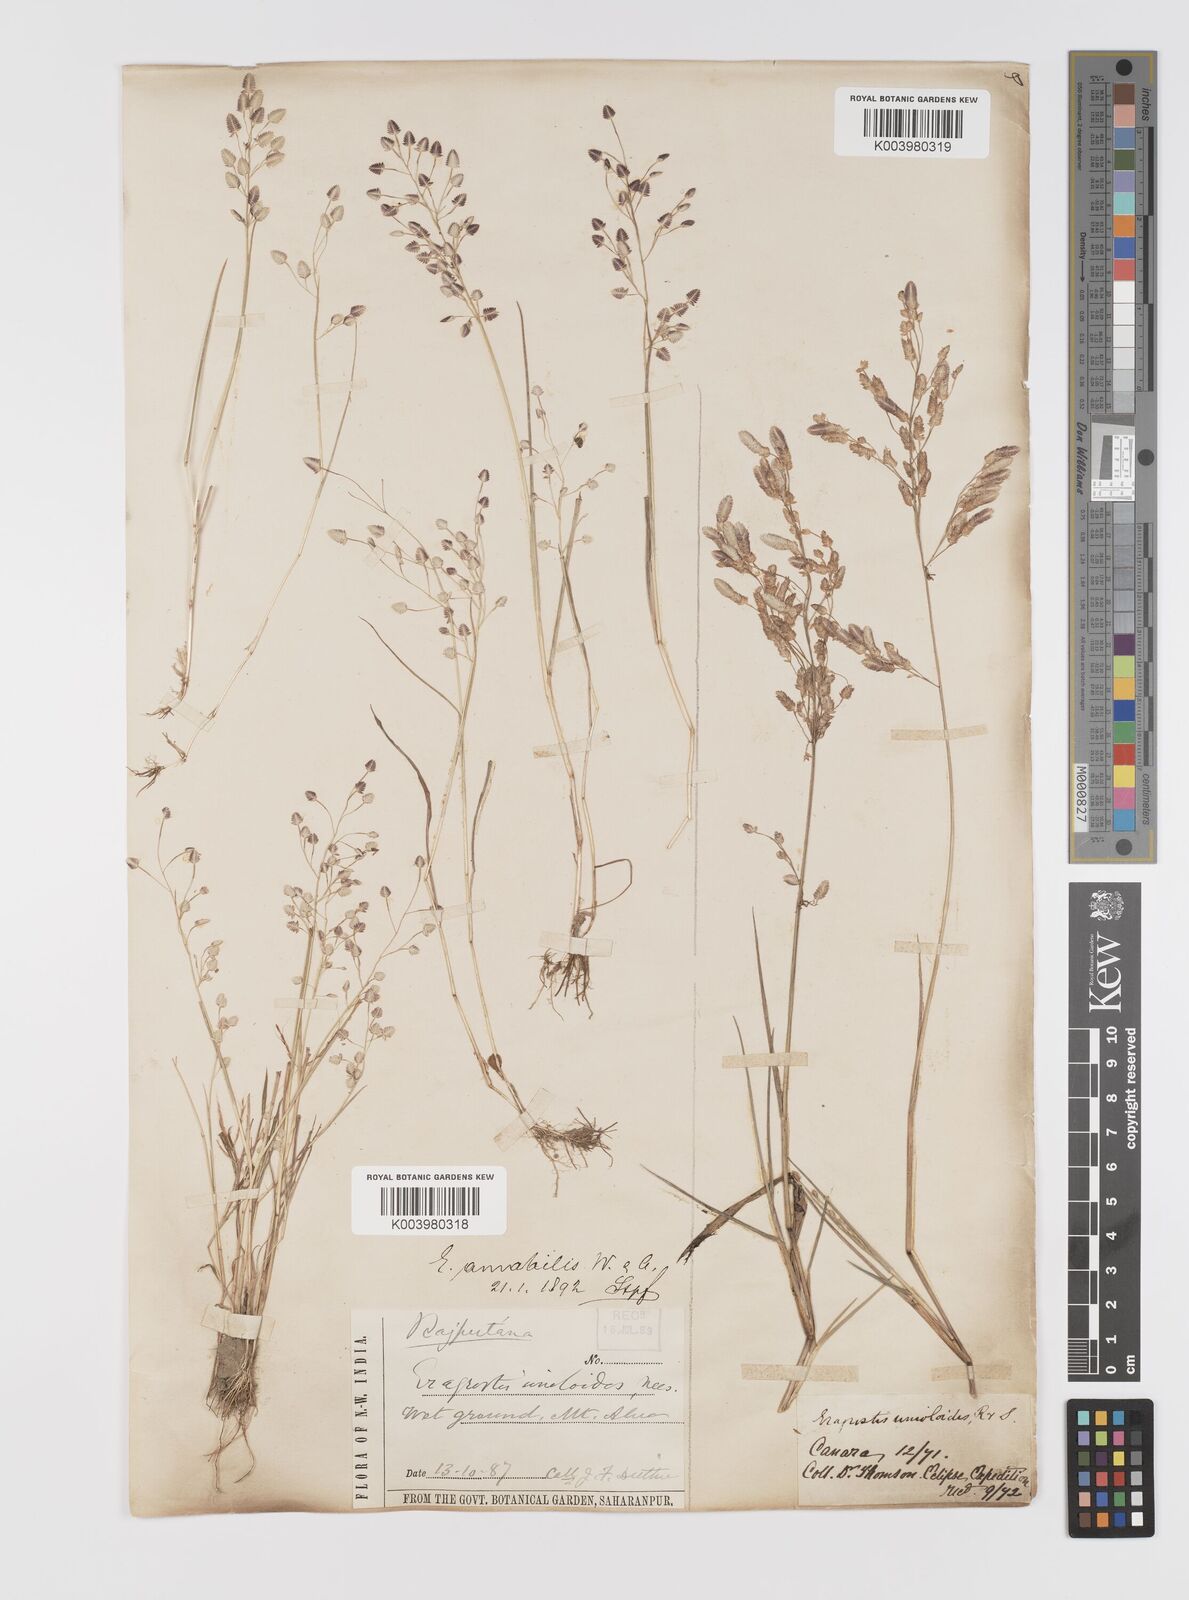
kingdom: Plantae
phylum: Tracheophyta
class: Liliopsida
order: Poales
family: Poaceae
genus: Eragrostis
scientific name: Eragrostis unioloides
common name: Chinese lovegrass
